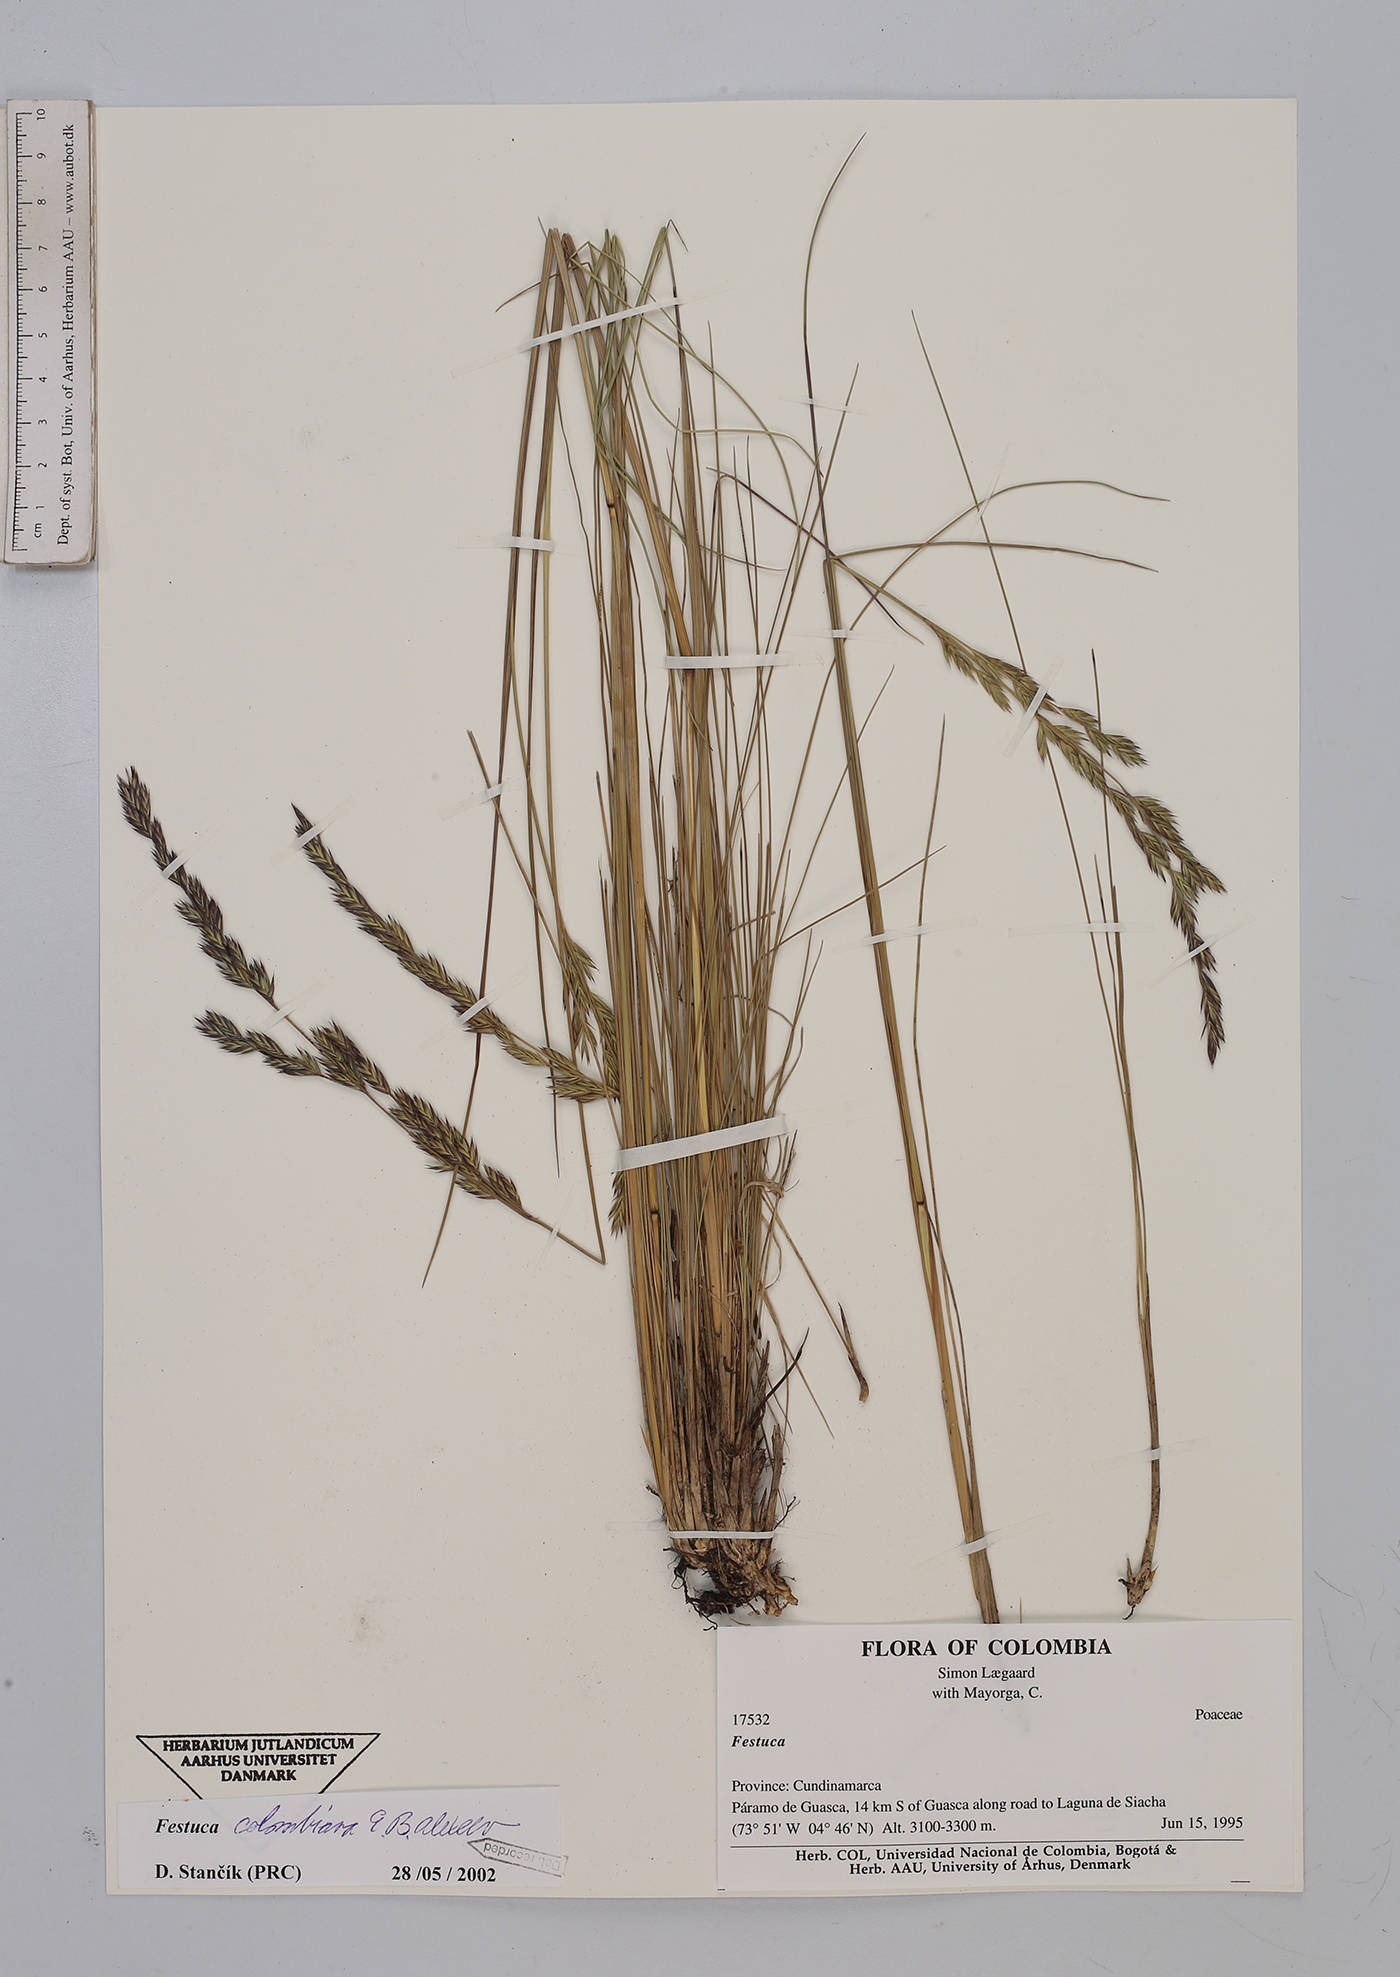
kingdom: Plantae
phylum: Tracheophyta
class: Liliopsida
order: Poales
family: Poaceae
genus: Festuca
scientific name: Festuca colombiana
